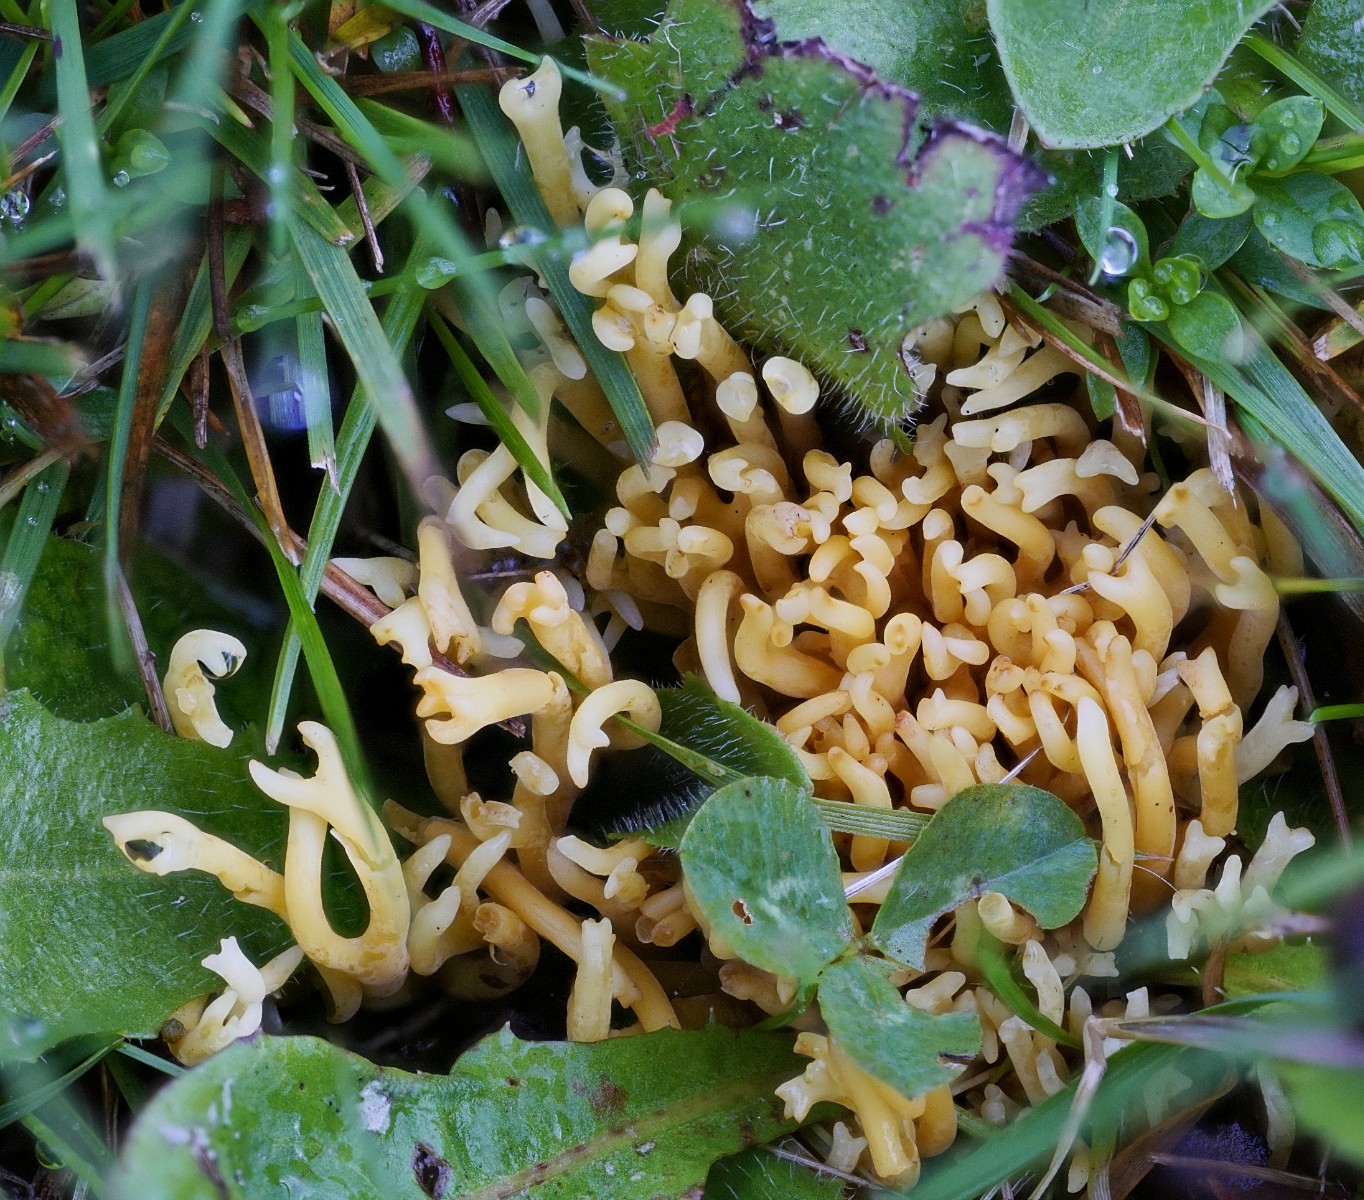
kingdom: Fungi
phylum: Basidiomycota
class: Agaricomycetes
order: Agaricales
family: Clavariaceae
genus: Clavulinopsis
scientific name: Clavulinopsis corniculata
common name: eng-køllesvamp
